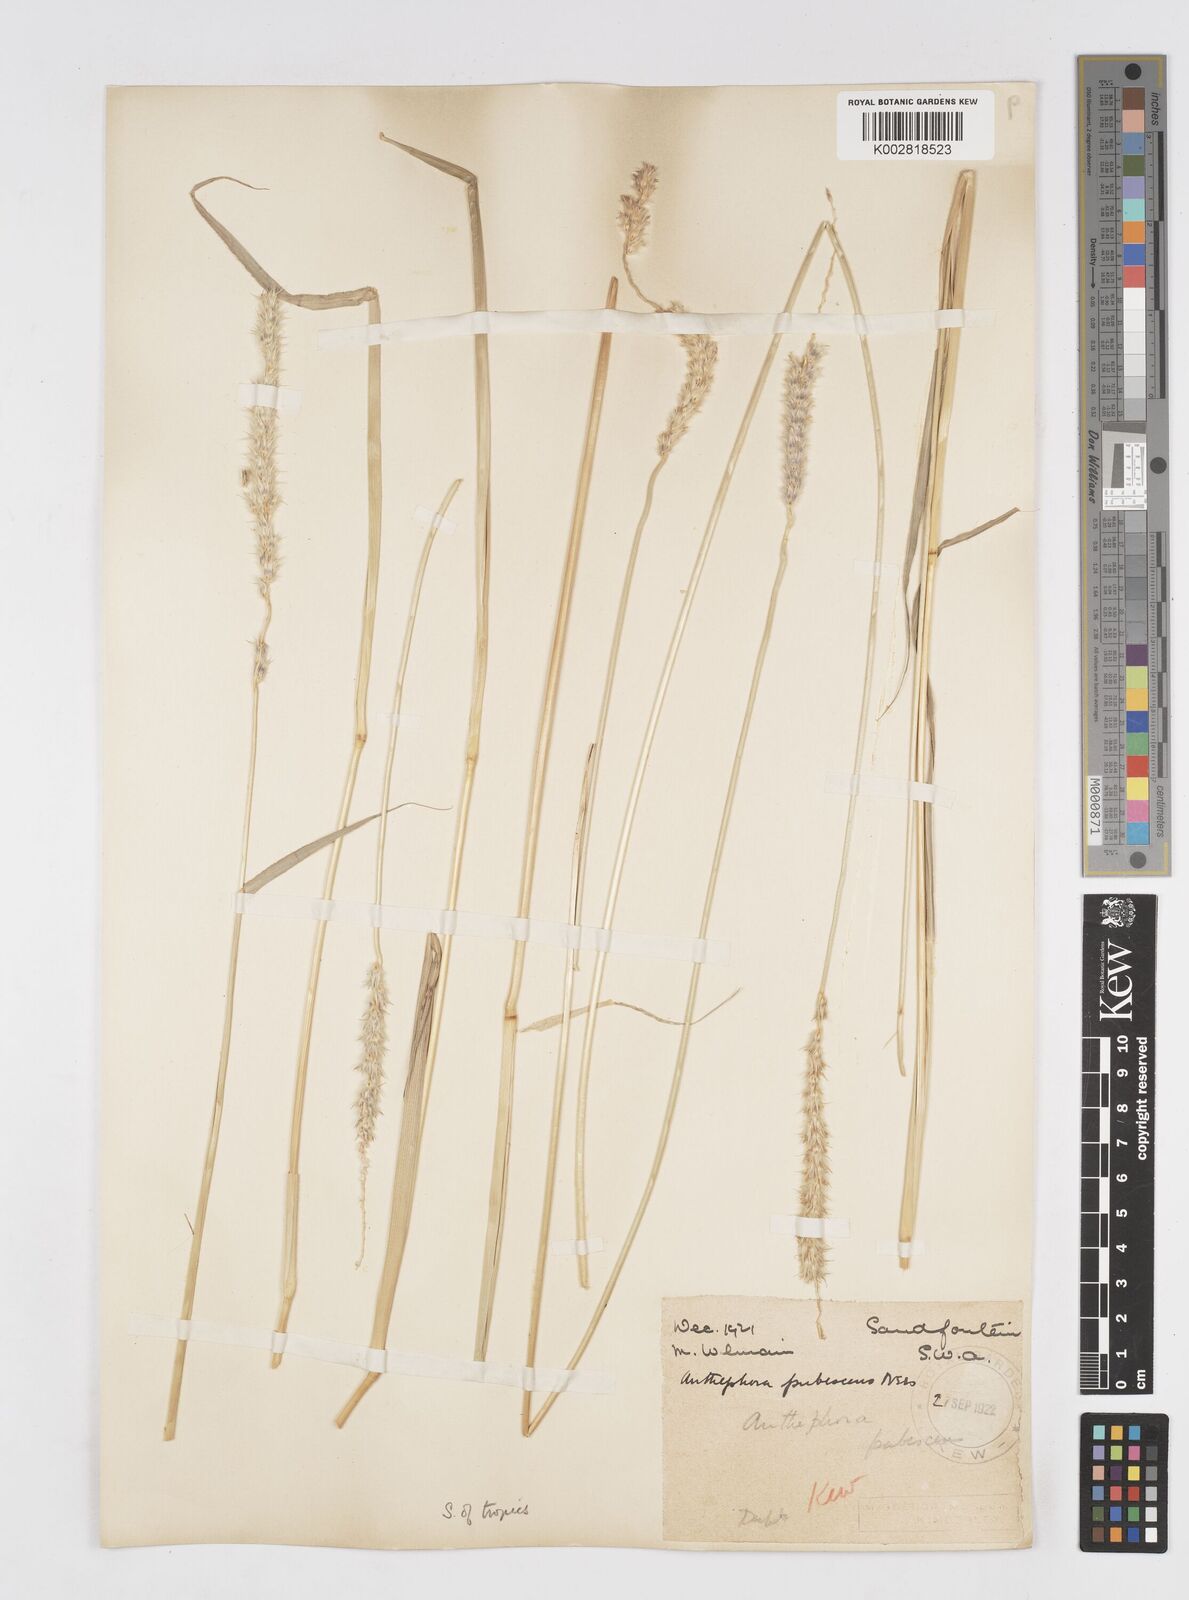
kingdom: Plantae
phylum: Tracheophyta
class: Liliopsida
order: Poales
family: Poaceae
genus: Anthephora
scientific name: Anthephora pubescens
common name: Wool grass
